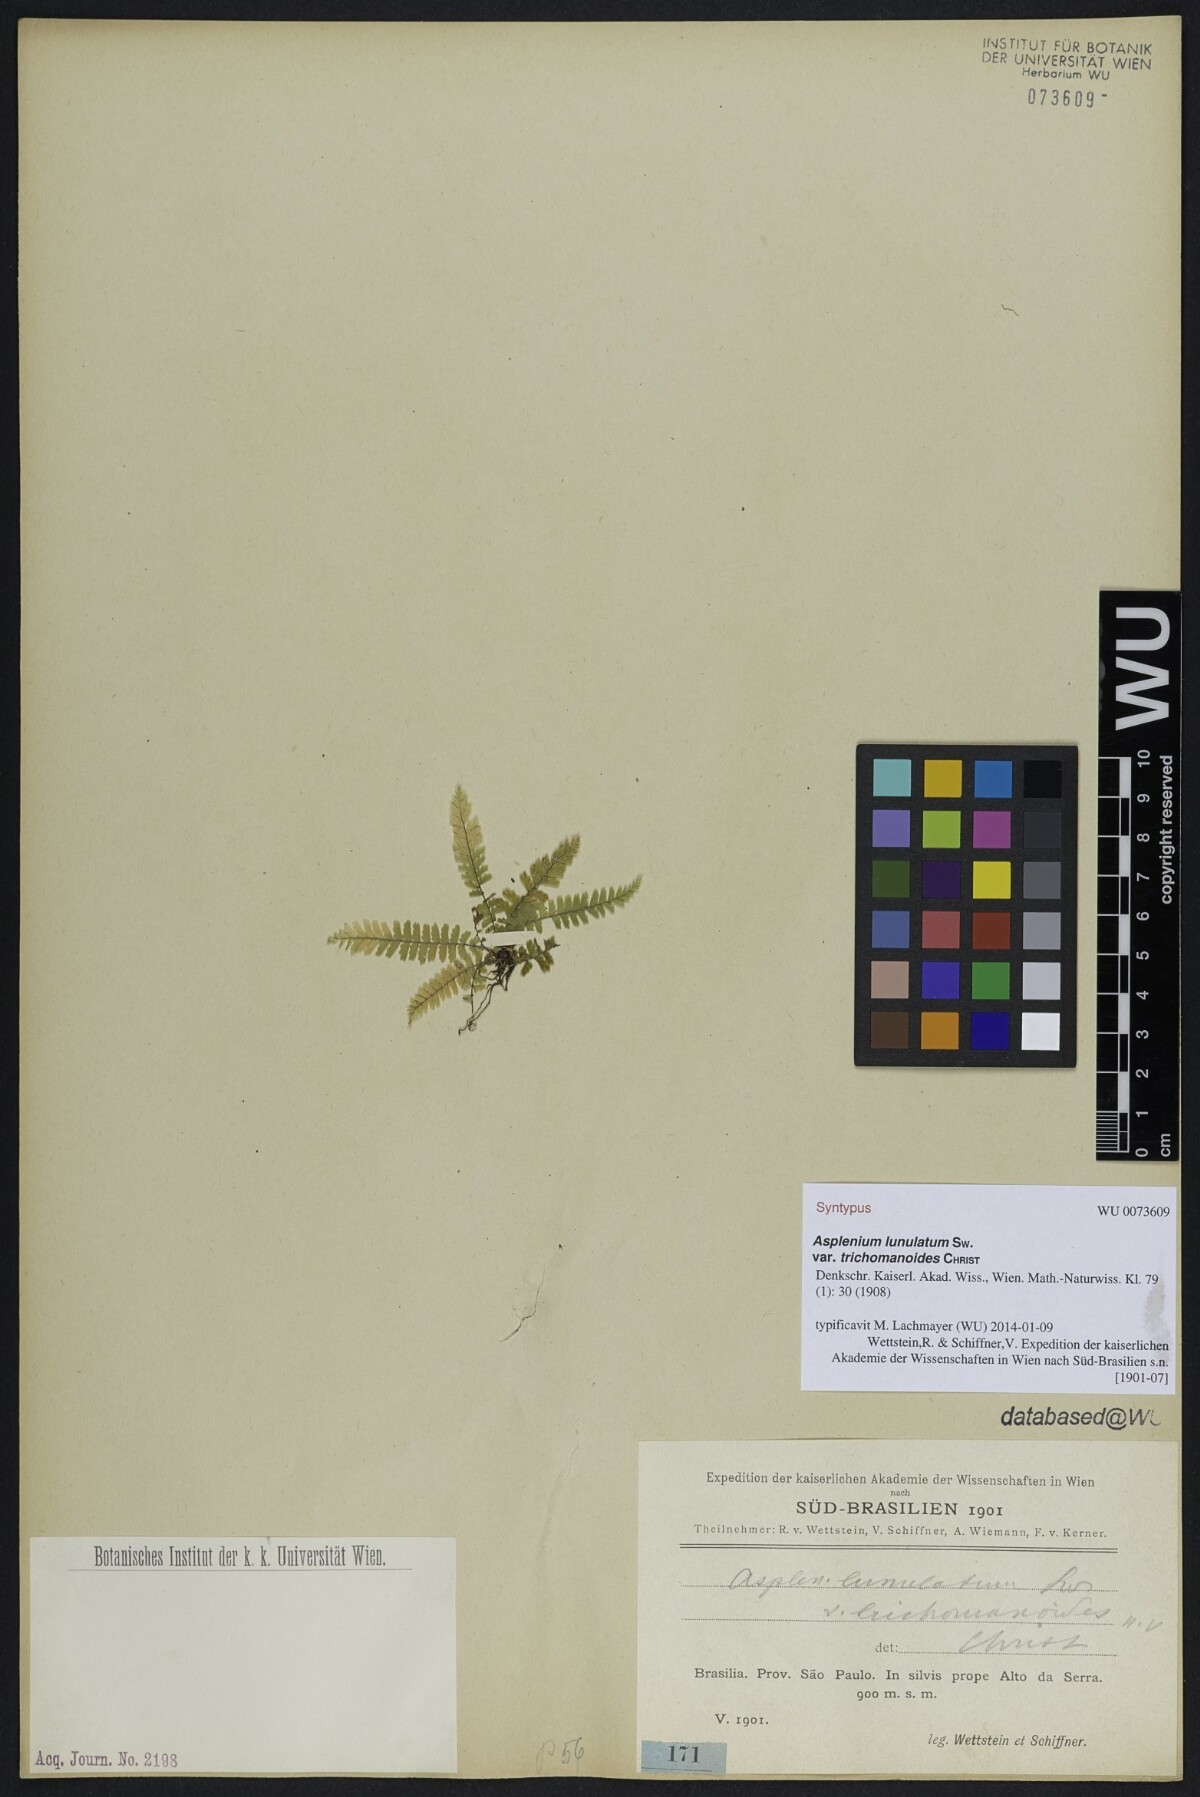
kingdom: Plantae
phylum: Tracheophyta
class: Polypodiopsida
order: Polypodiales
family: Aspleniaceae
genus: Asplenium
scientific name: Asplenium harpeodes
